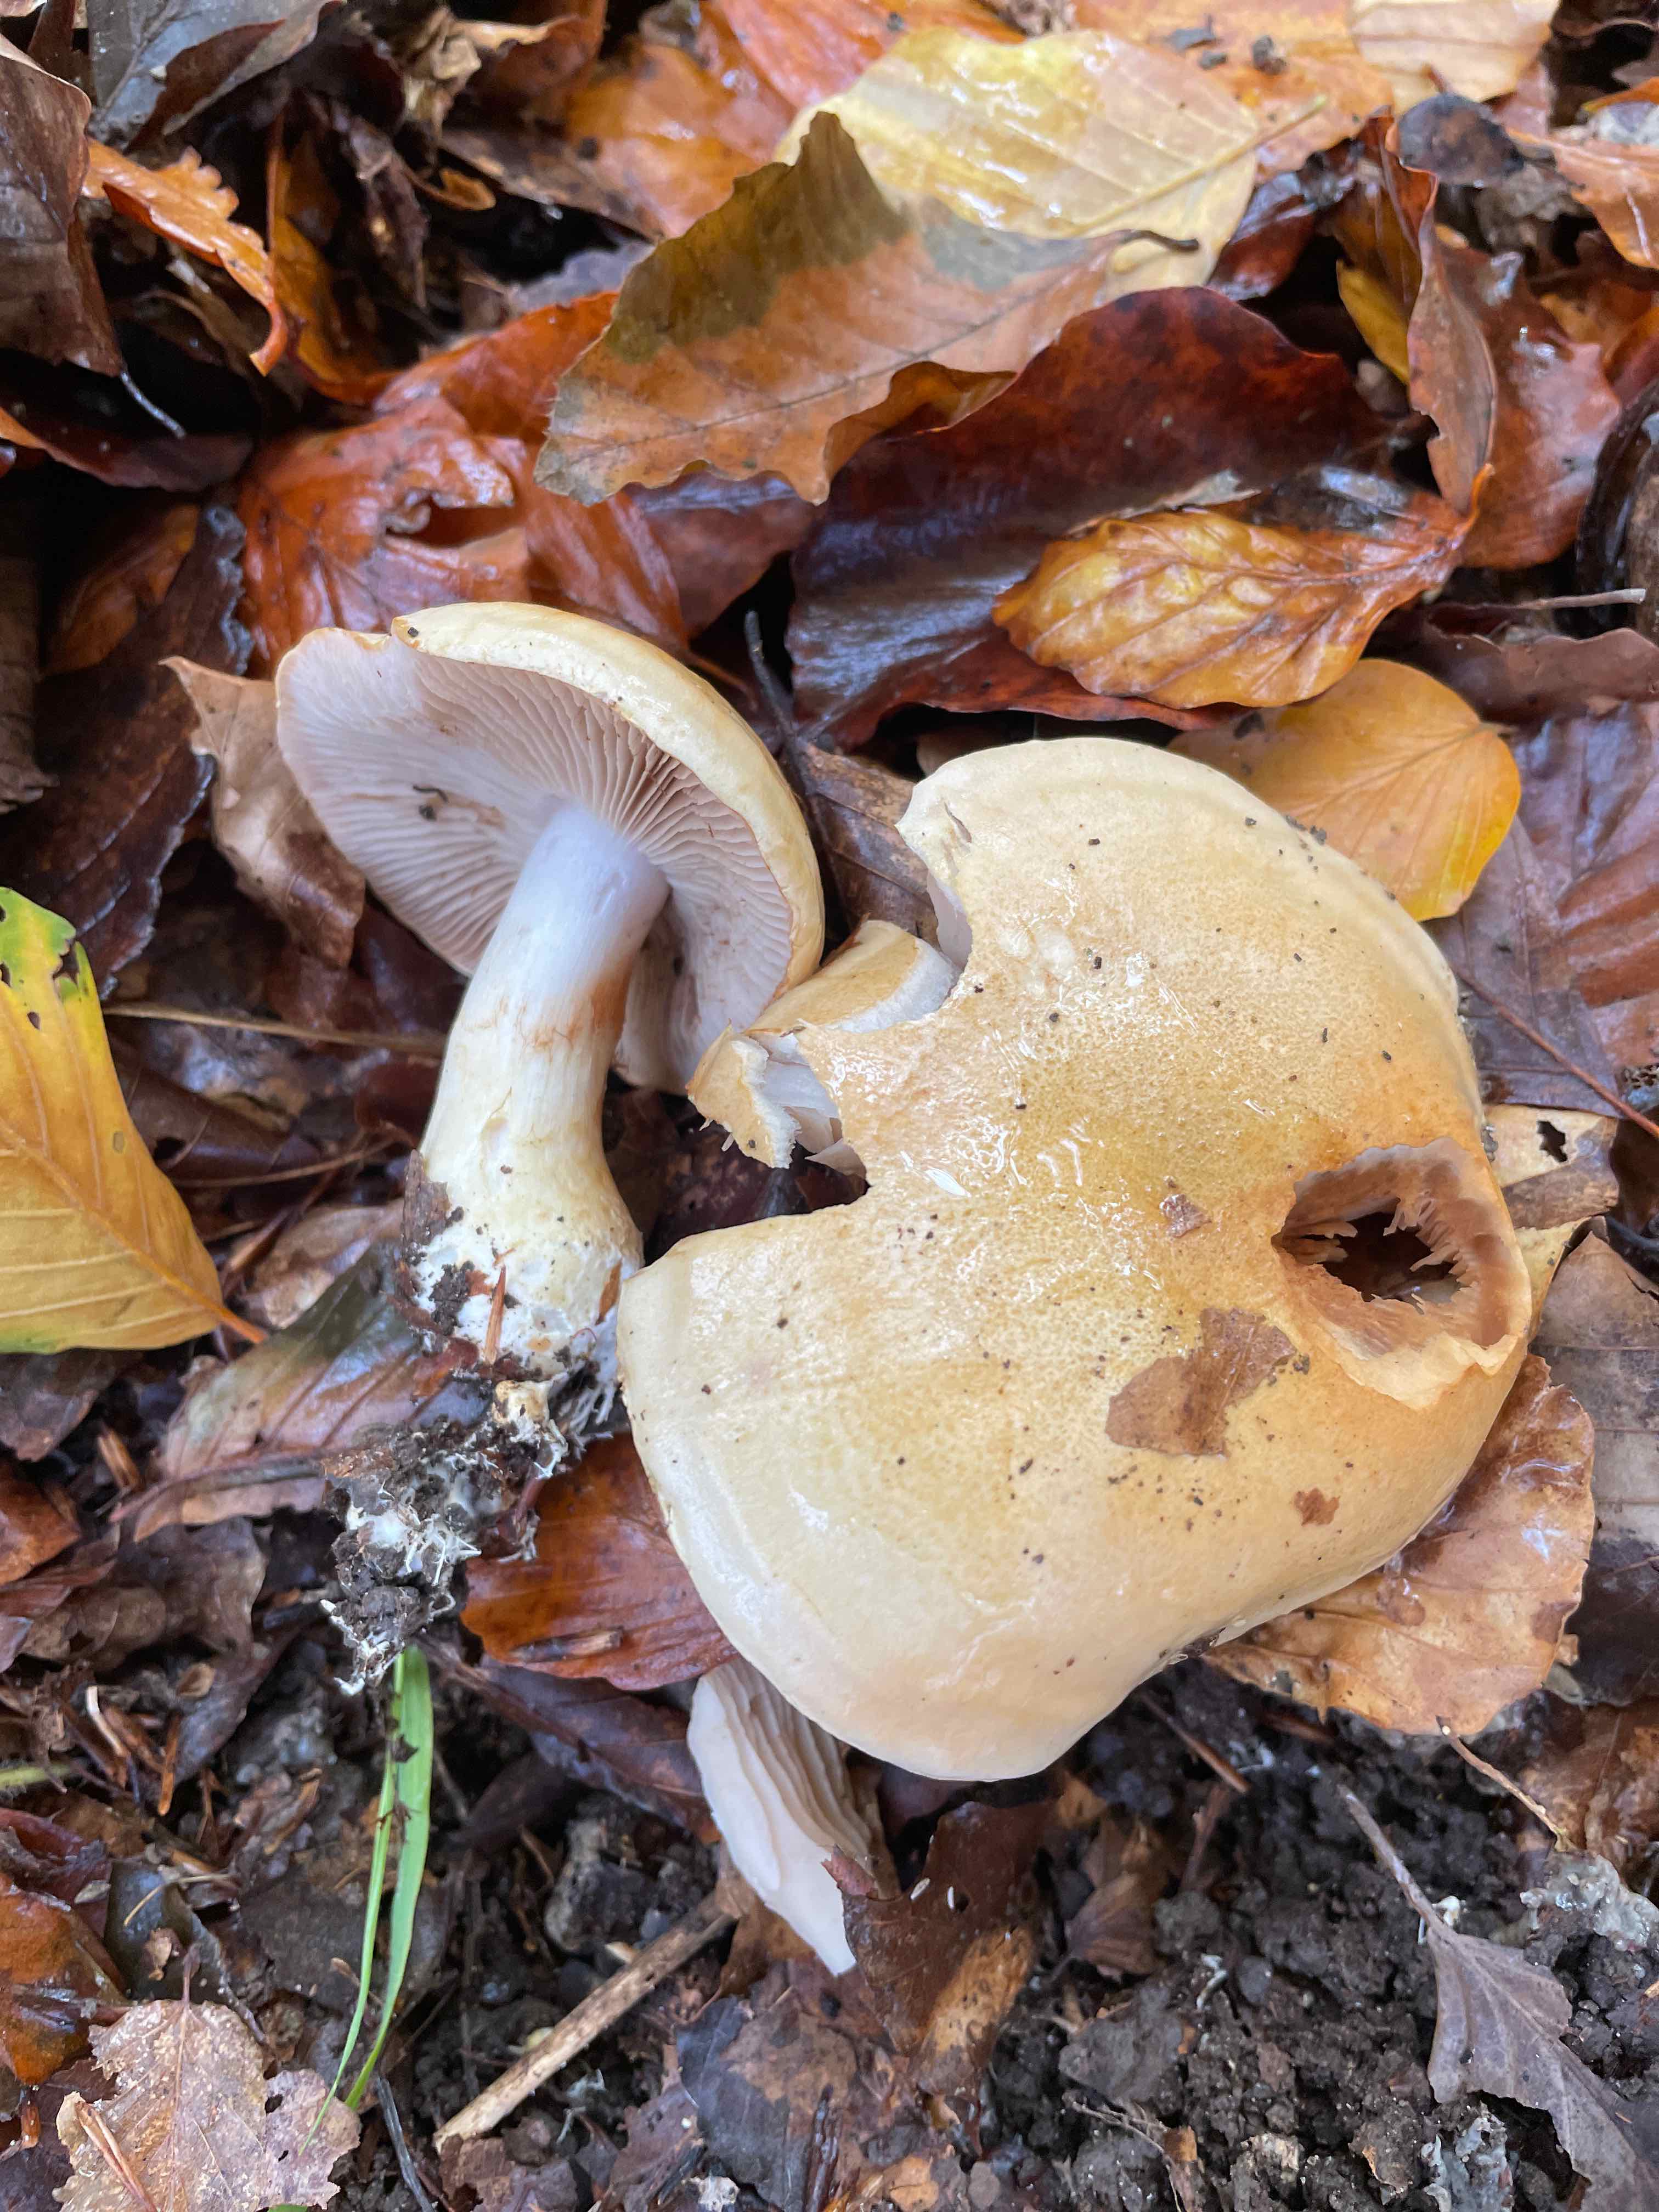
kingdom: Fungi
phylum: Basidiomycota
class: Agaricomycetes
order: Agaricales
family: Cortinariaceae
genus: Phlegmacium
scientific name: Phlegmacium cliduchus
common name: majs-slørhat
